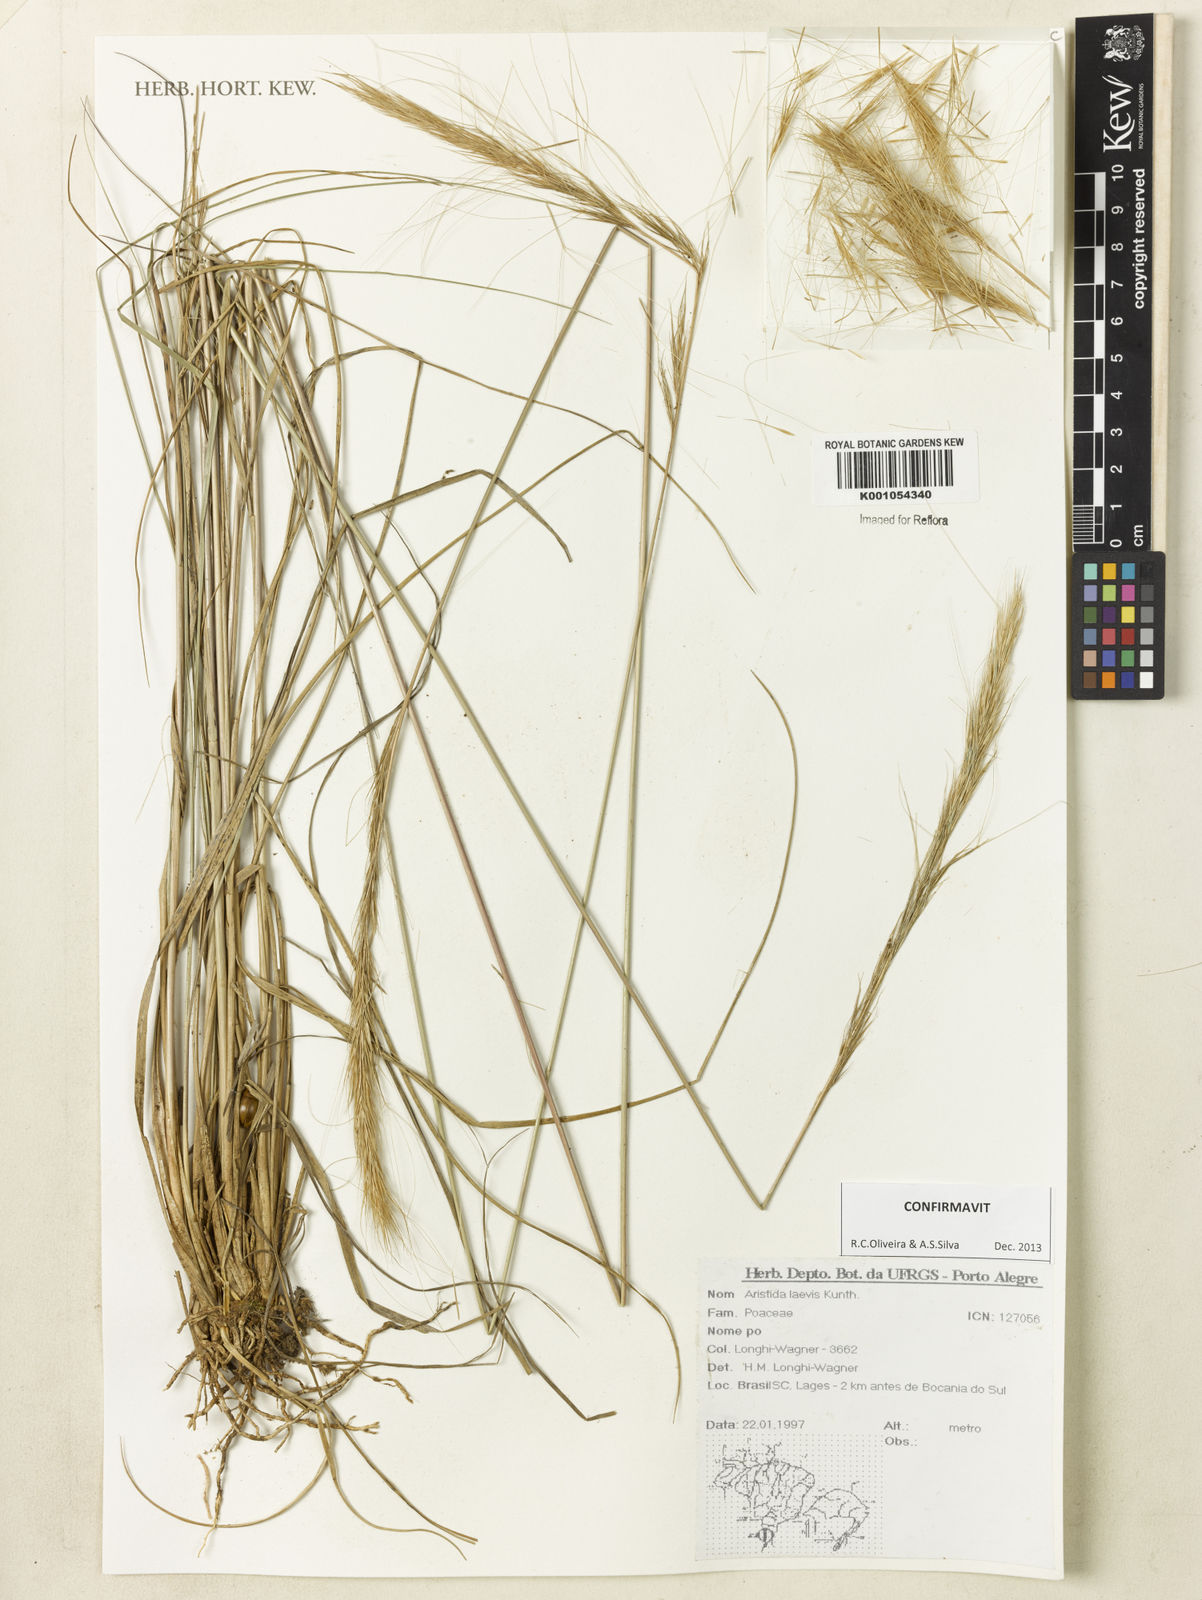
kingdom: Plantae
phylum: Tracheophyta
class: Liliopsida
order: Poales
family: Poaceae
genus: Aristida
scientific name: Aristida laevis
